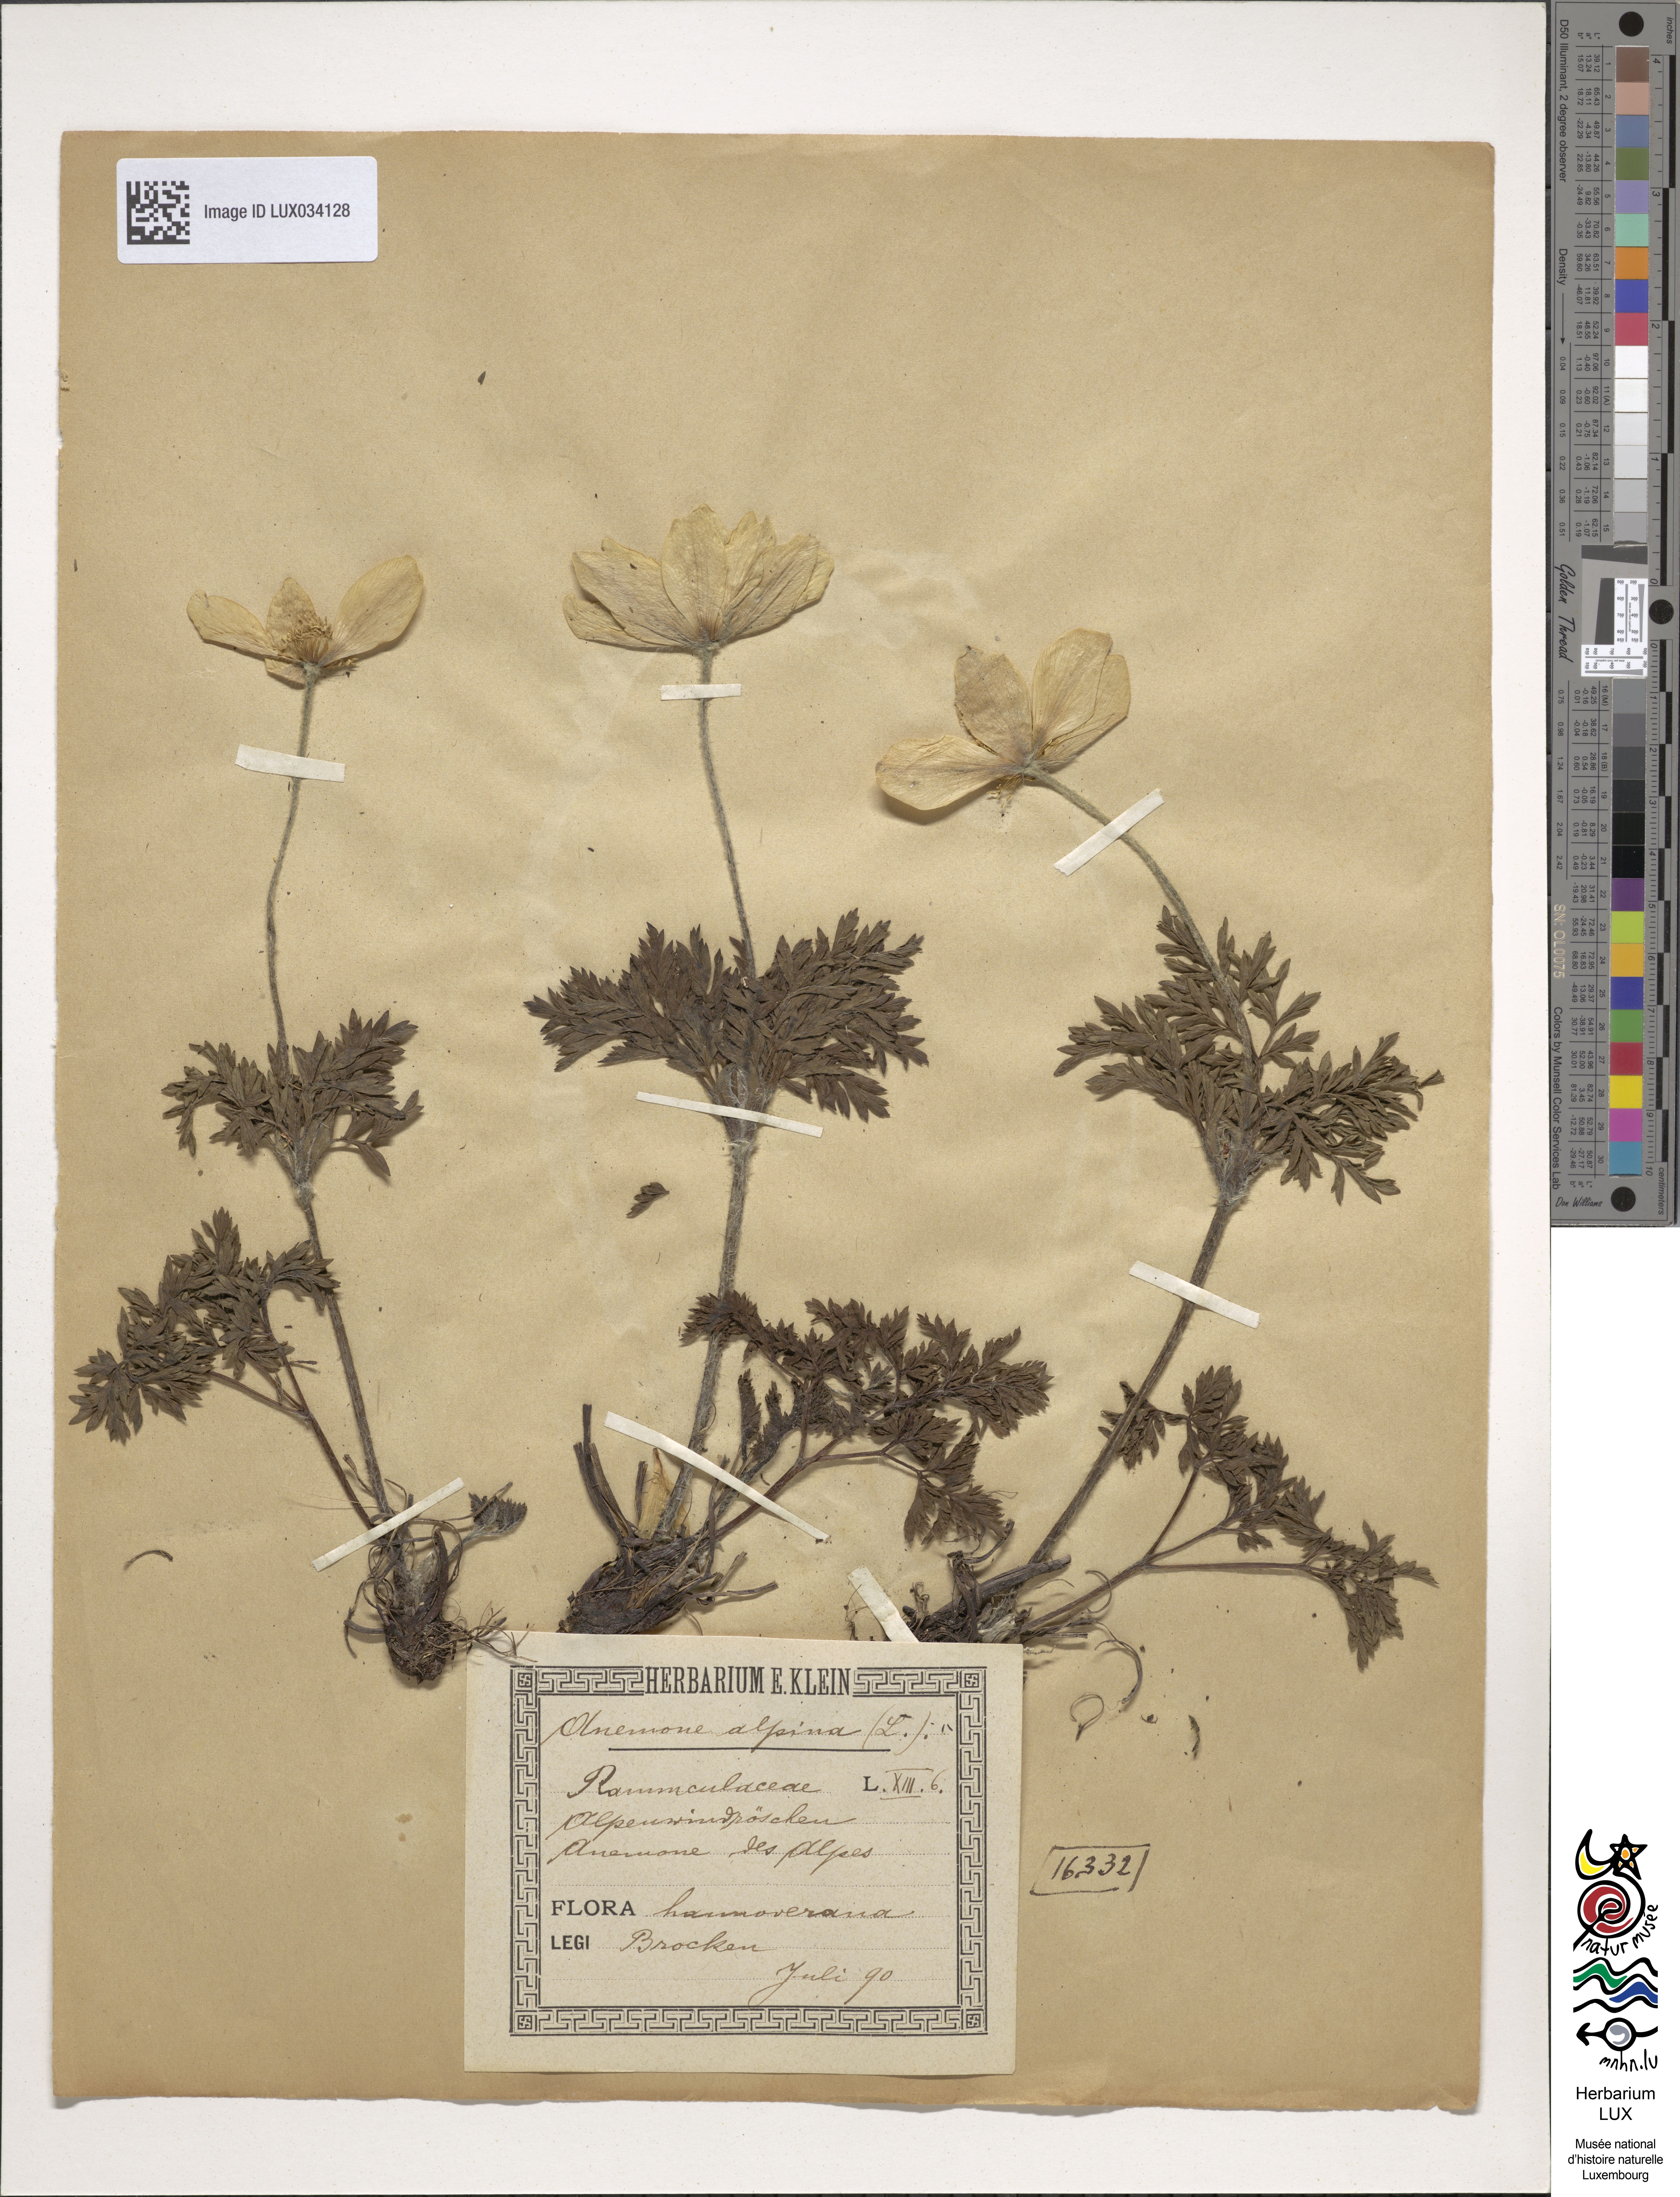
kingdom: Plantae
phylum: Tracheophyta
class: Magnoliopsida
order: Ranunculales
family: Ranunculaceae
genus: Pulsatilla
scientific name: Pulsatilla alpina
